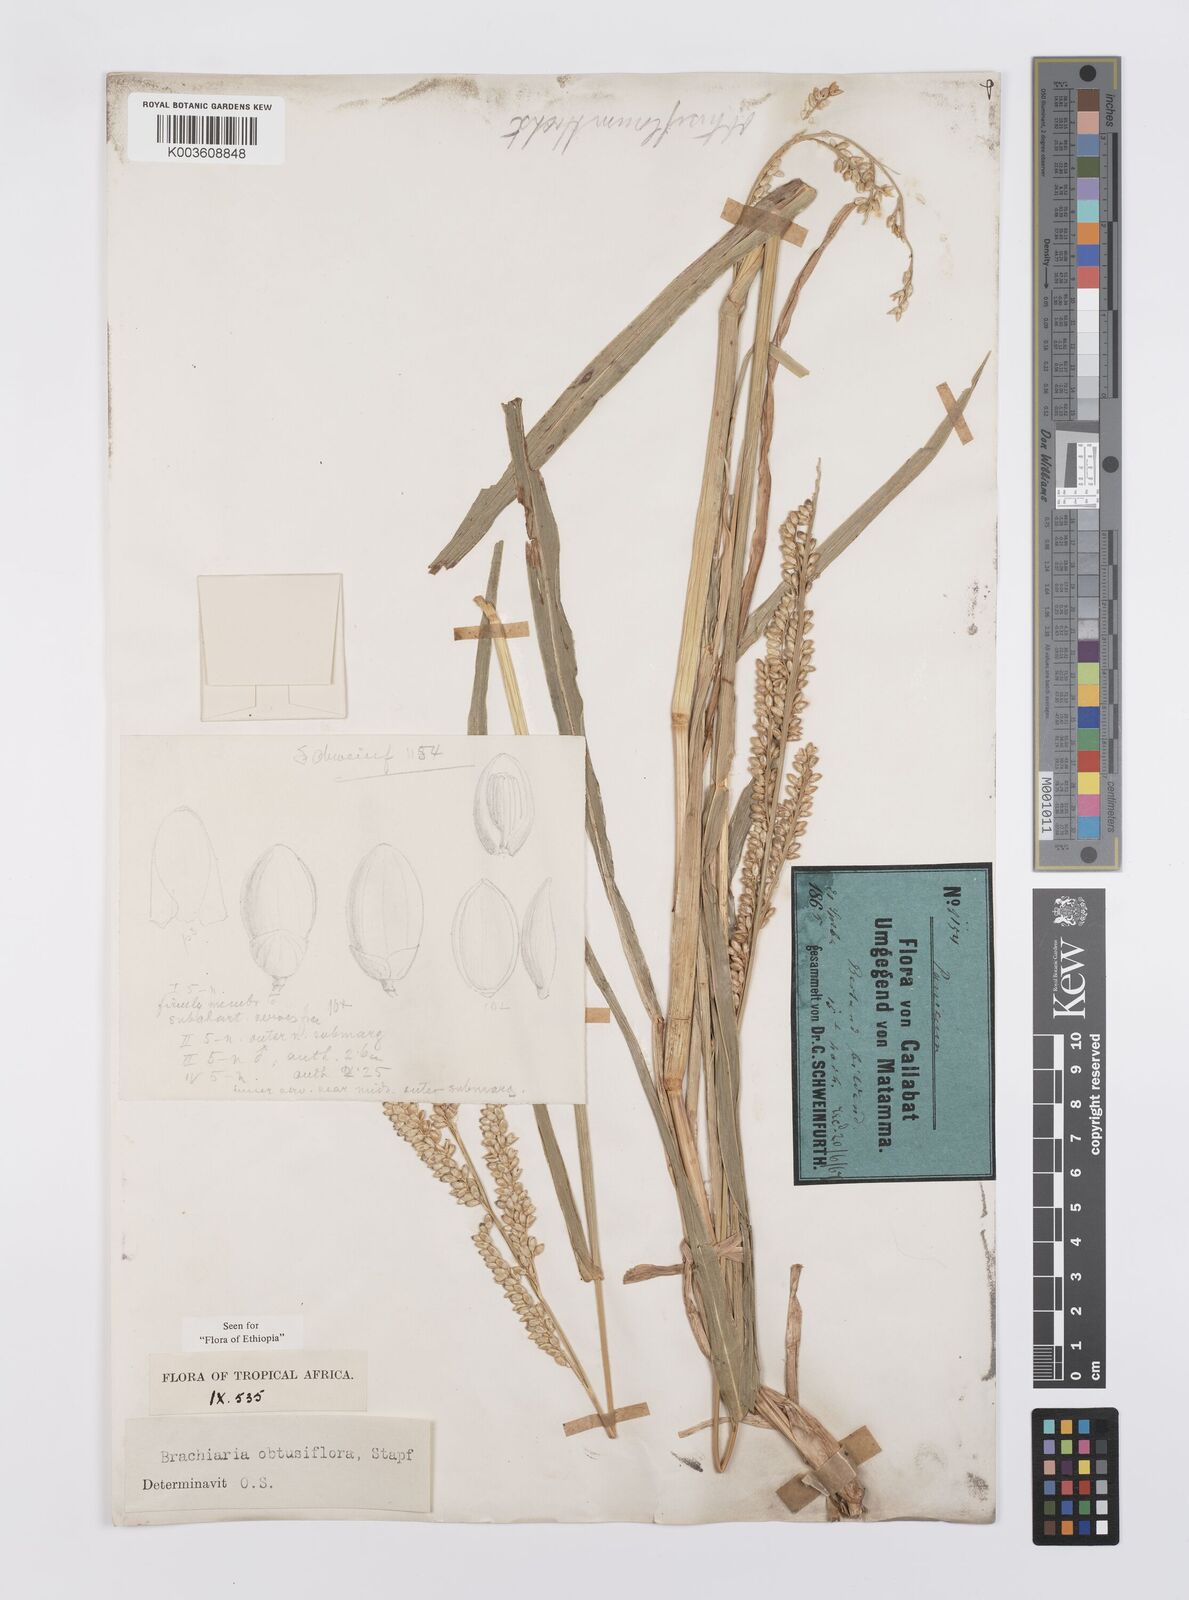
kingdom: Plantae
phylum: Tracheophyta
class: Liliopsida
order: Poales
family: Poaceae
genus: Echinochloa
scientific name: Echinochloa rotundiflora
